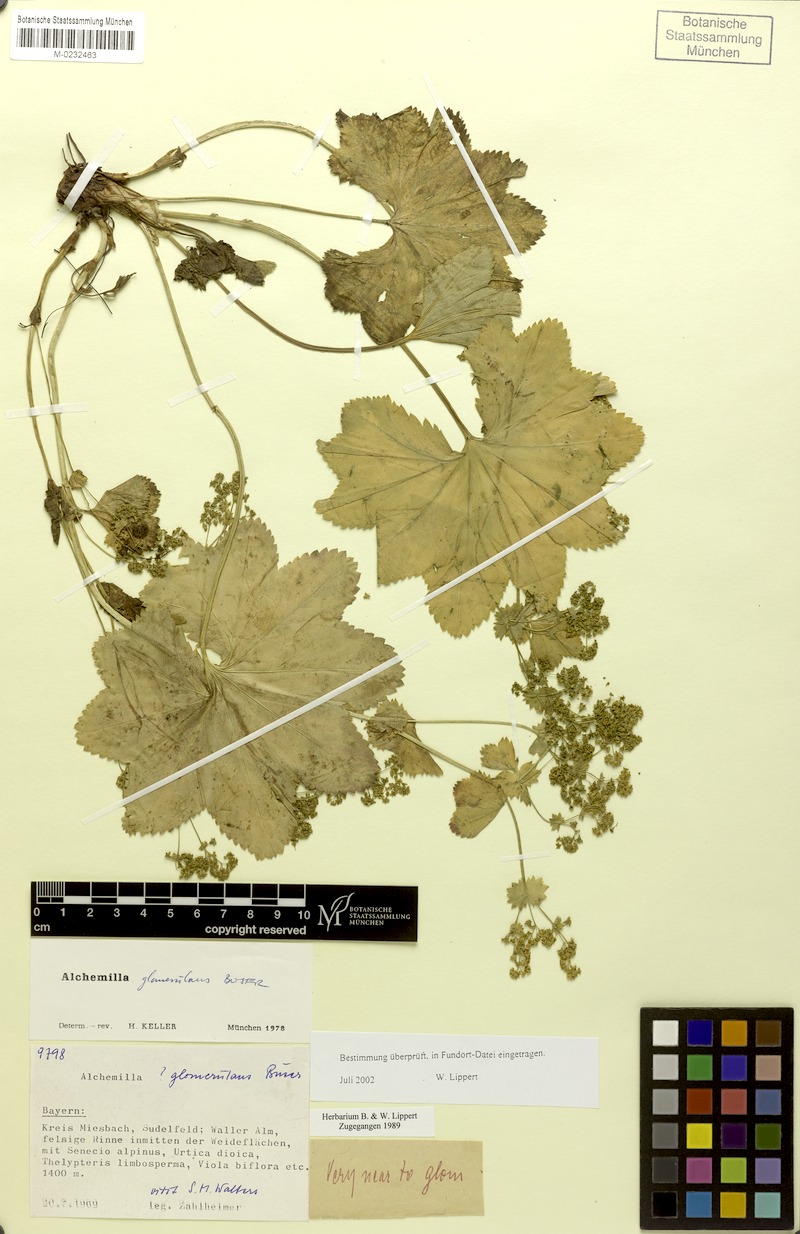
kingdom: Plantae
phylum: Tracheophyta
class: Magnoliopsida
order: Rosales
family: Rosaceae
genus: Alchemilla
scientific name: Alchemilla glomerulans
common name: Clustered lady's mantle
